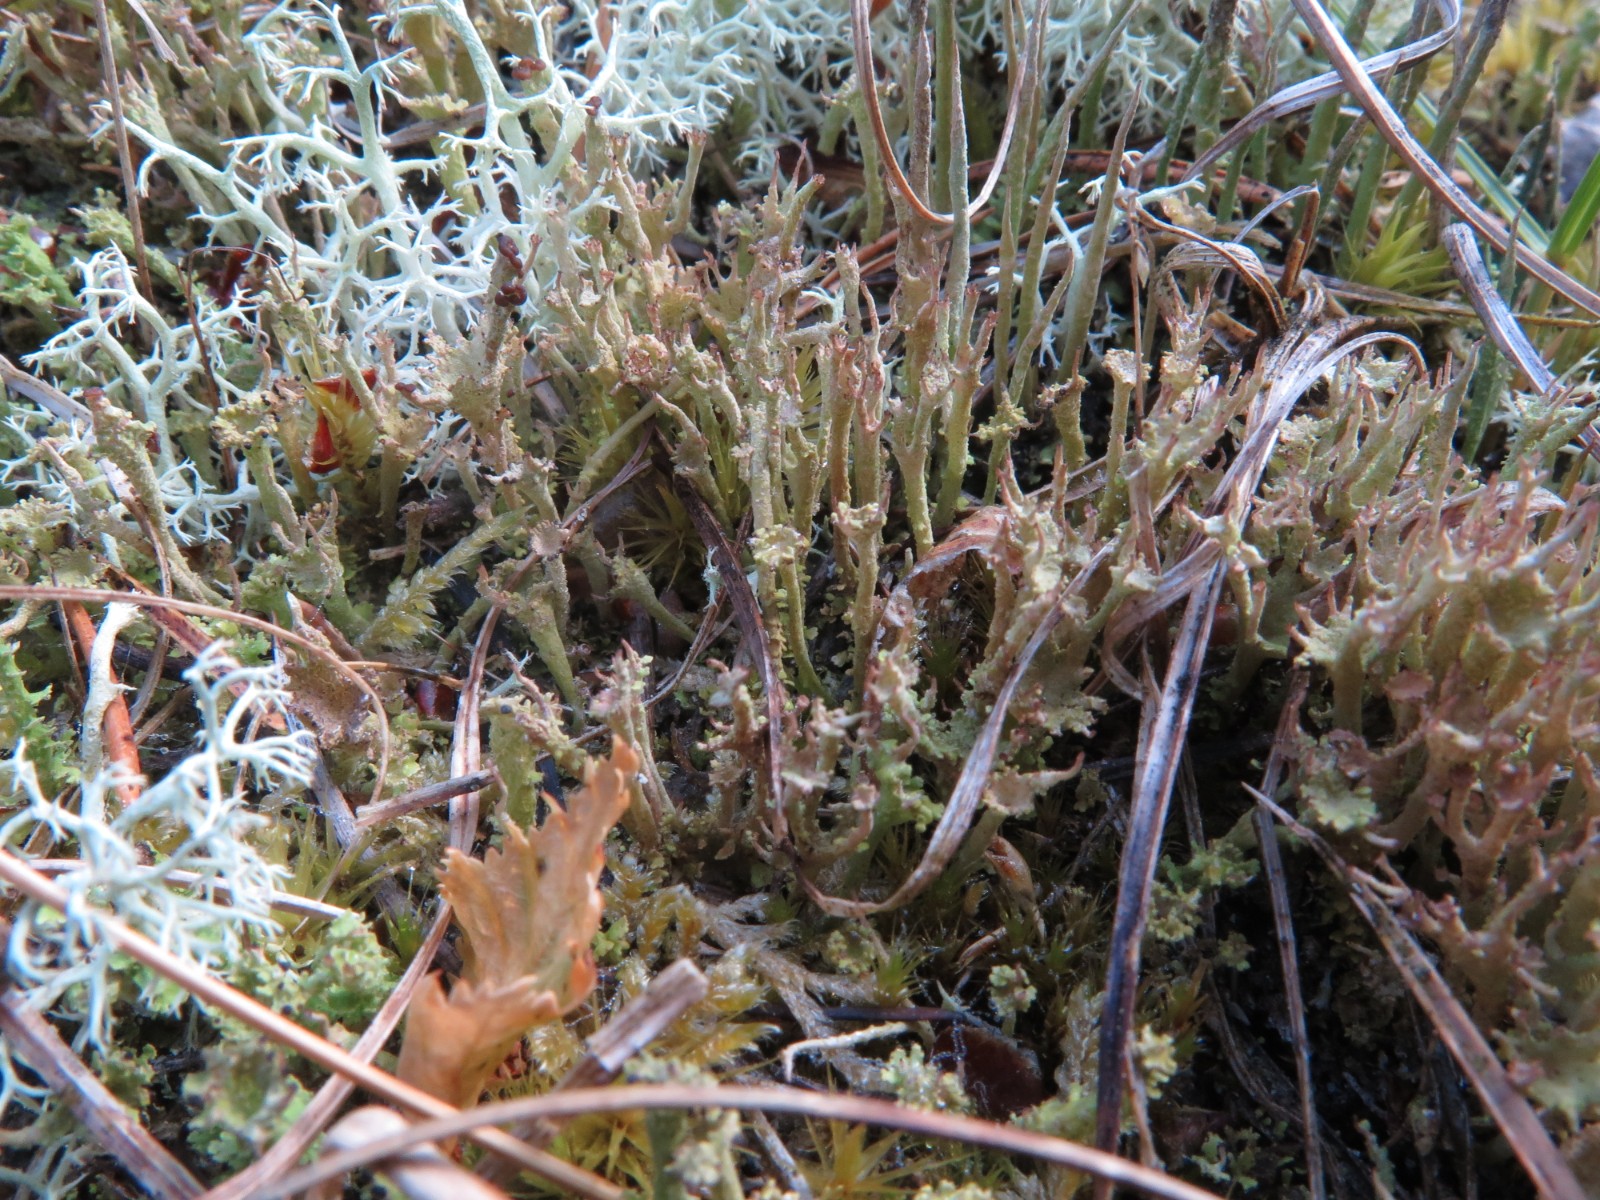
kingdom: Fungi
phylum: Ascomycota
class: Lecanoromycetes
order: Lecanorales
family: Cladoniaceae
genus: Cladonia
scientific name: Cladonia gracilis
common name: slank bægerlav
